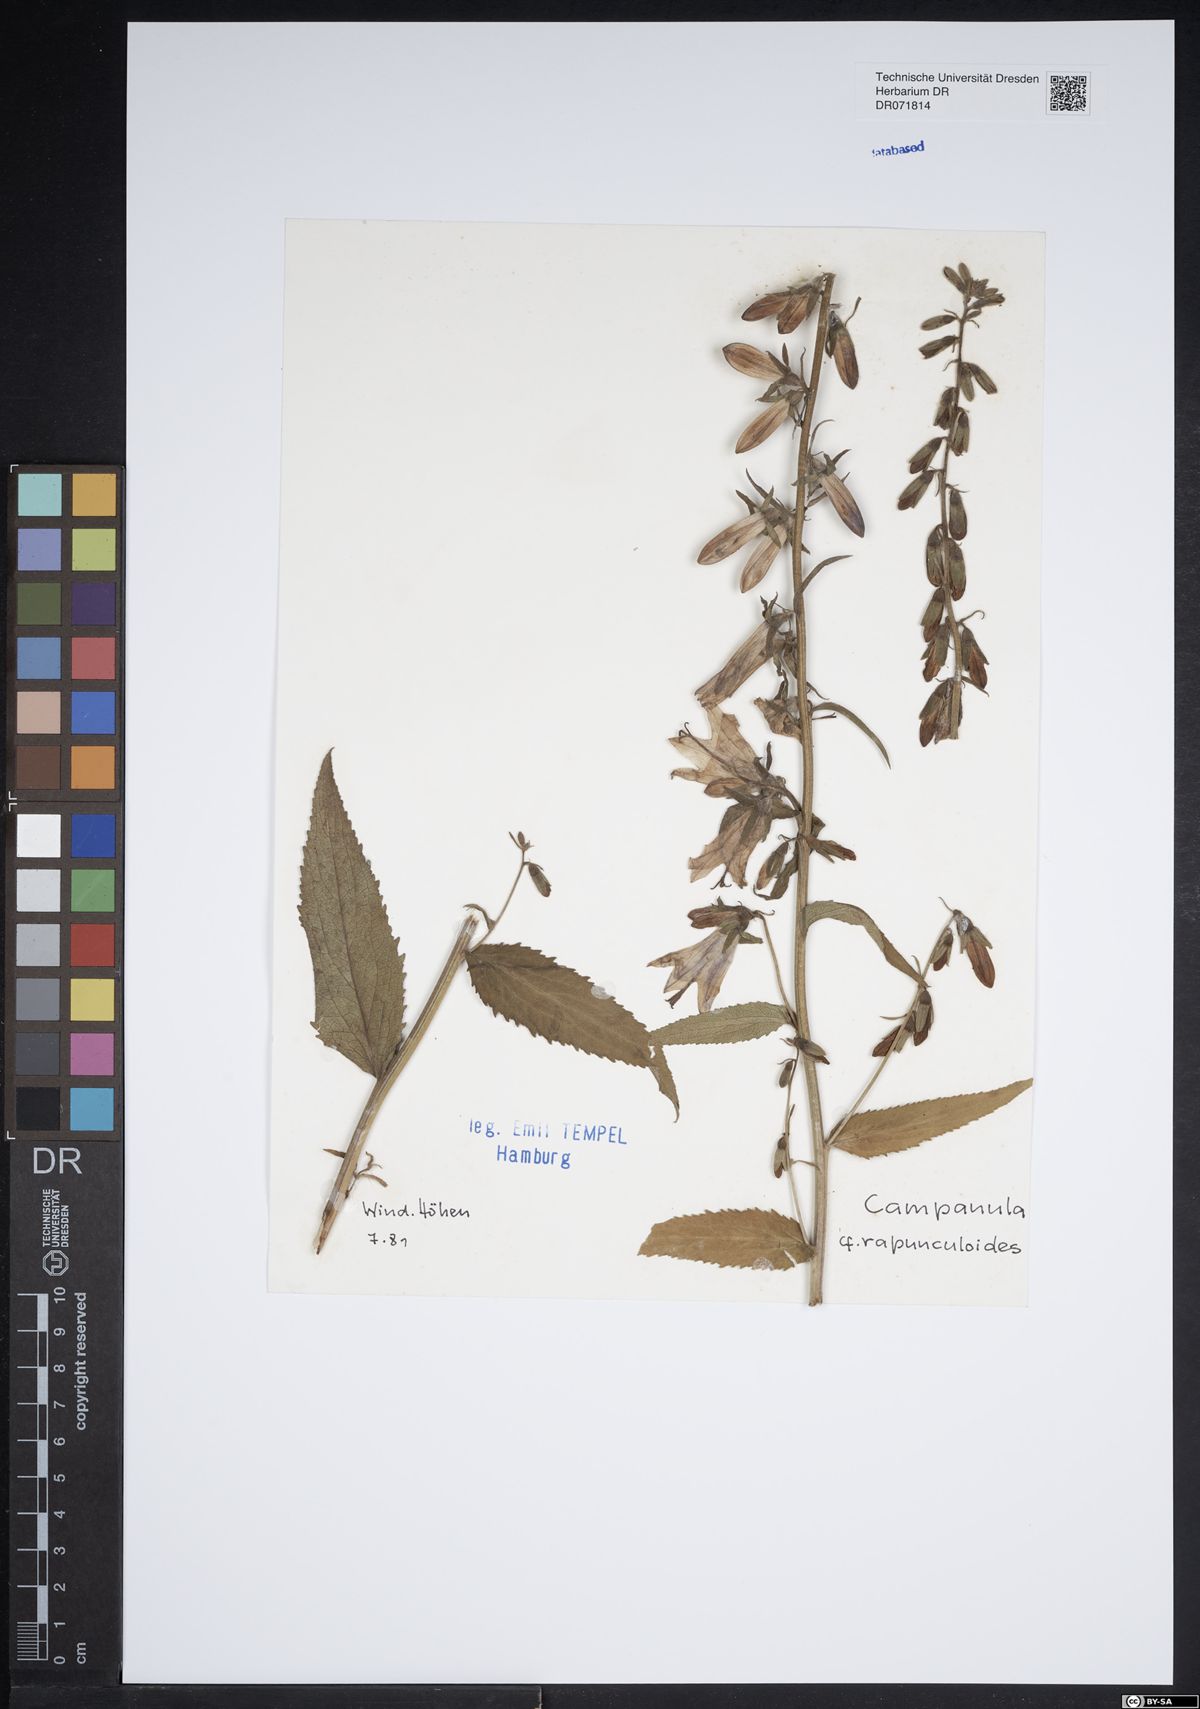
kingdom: Plantae
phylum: Tracheophyta
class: Magnoliopsida
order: Asterales
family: Campanulaceae
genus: Campanula
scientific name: Campanula rapunculoides
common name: Creeping bellflower
